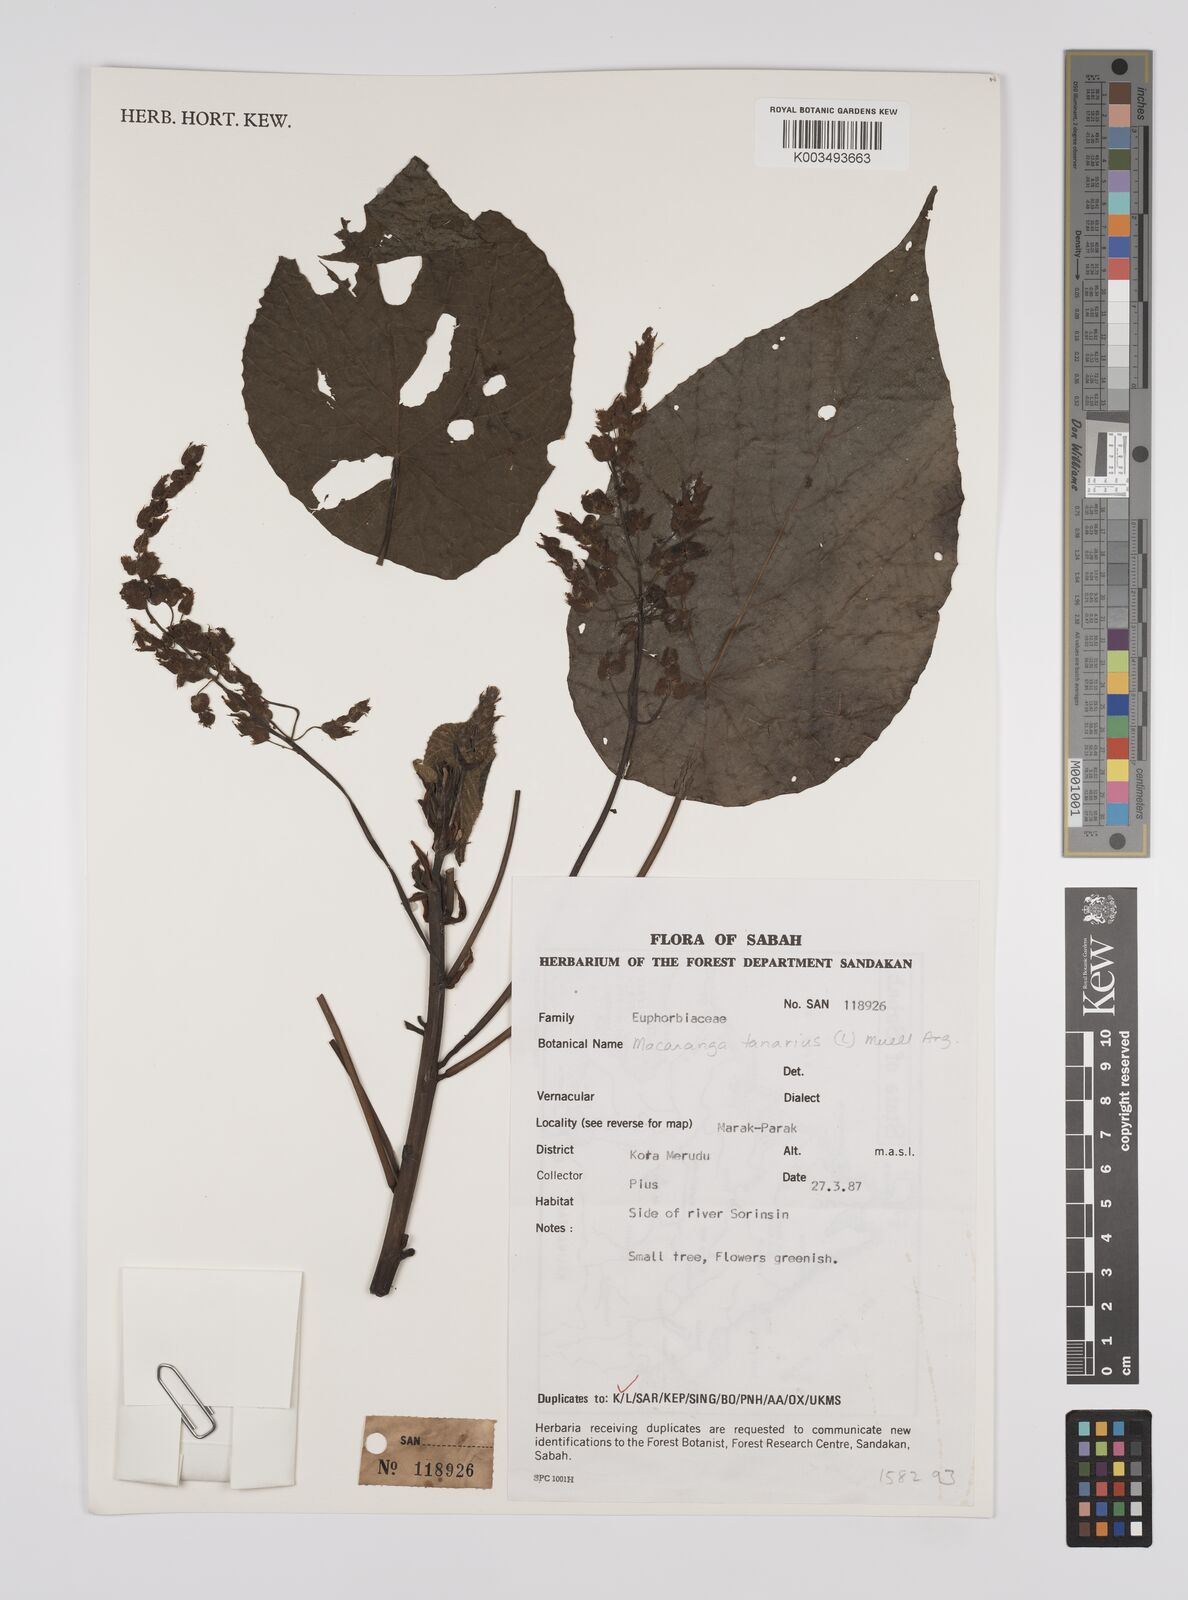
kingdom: Plantae
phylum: Tracheophyta
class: Magnoliopsida
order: Malpighiales
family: Euphorbiaceae
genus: Macaranga
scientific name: Macaranga tanarius
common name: Parasol leaf tree
